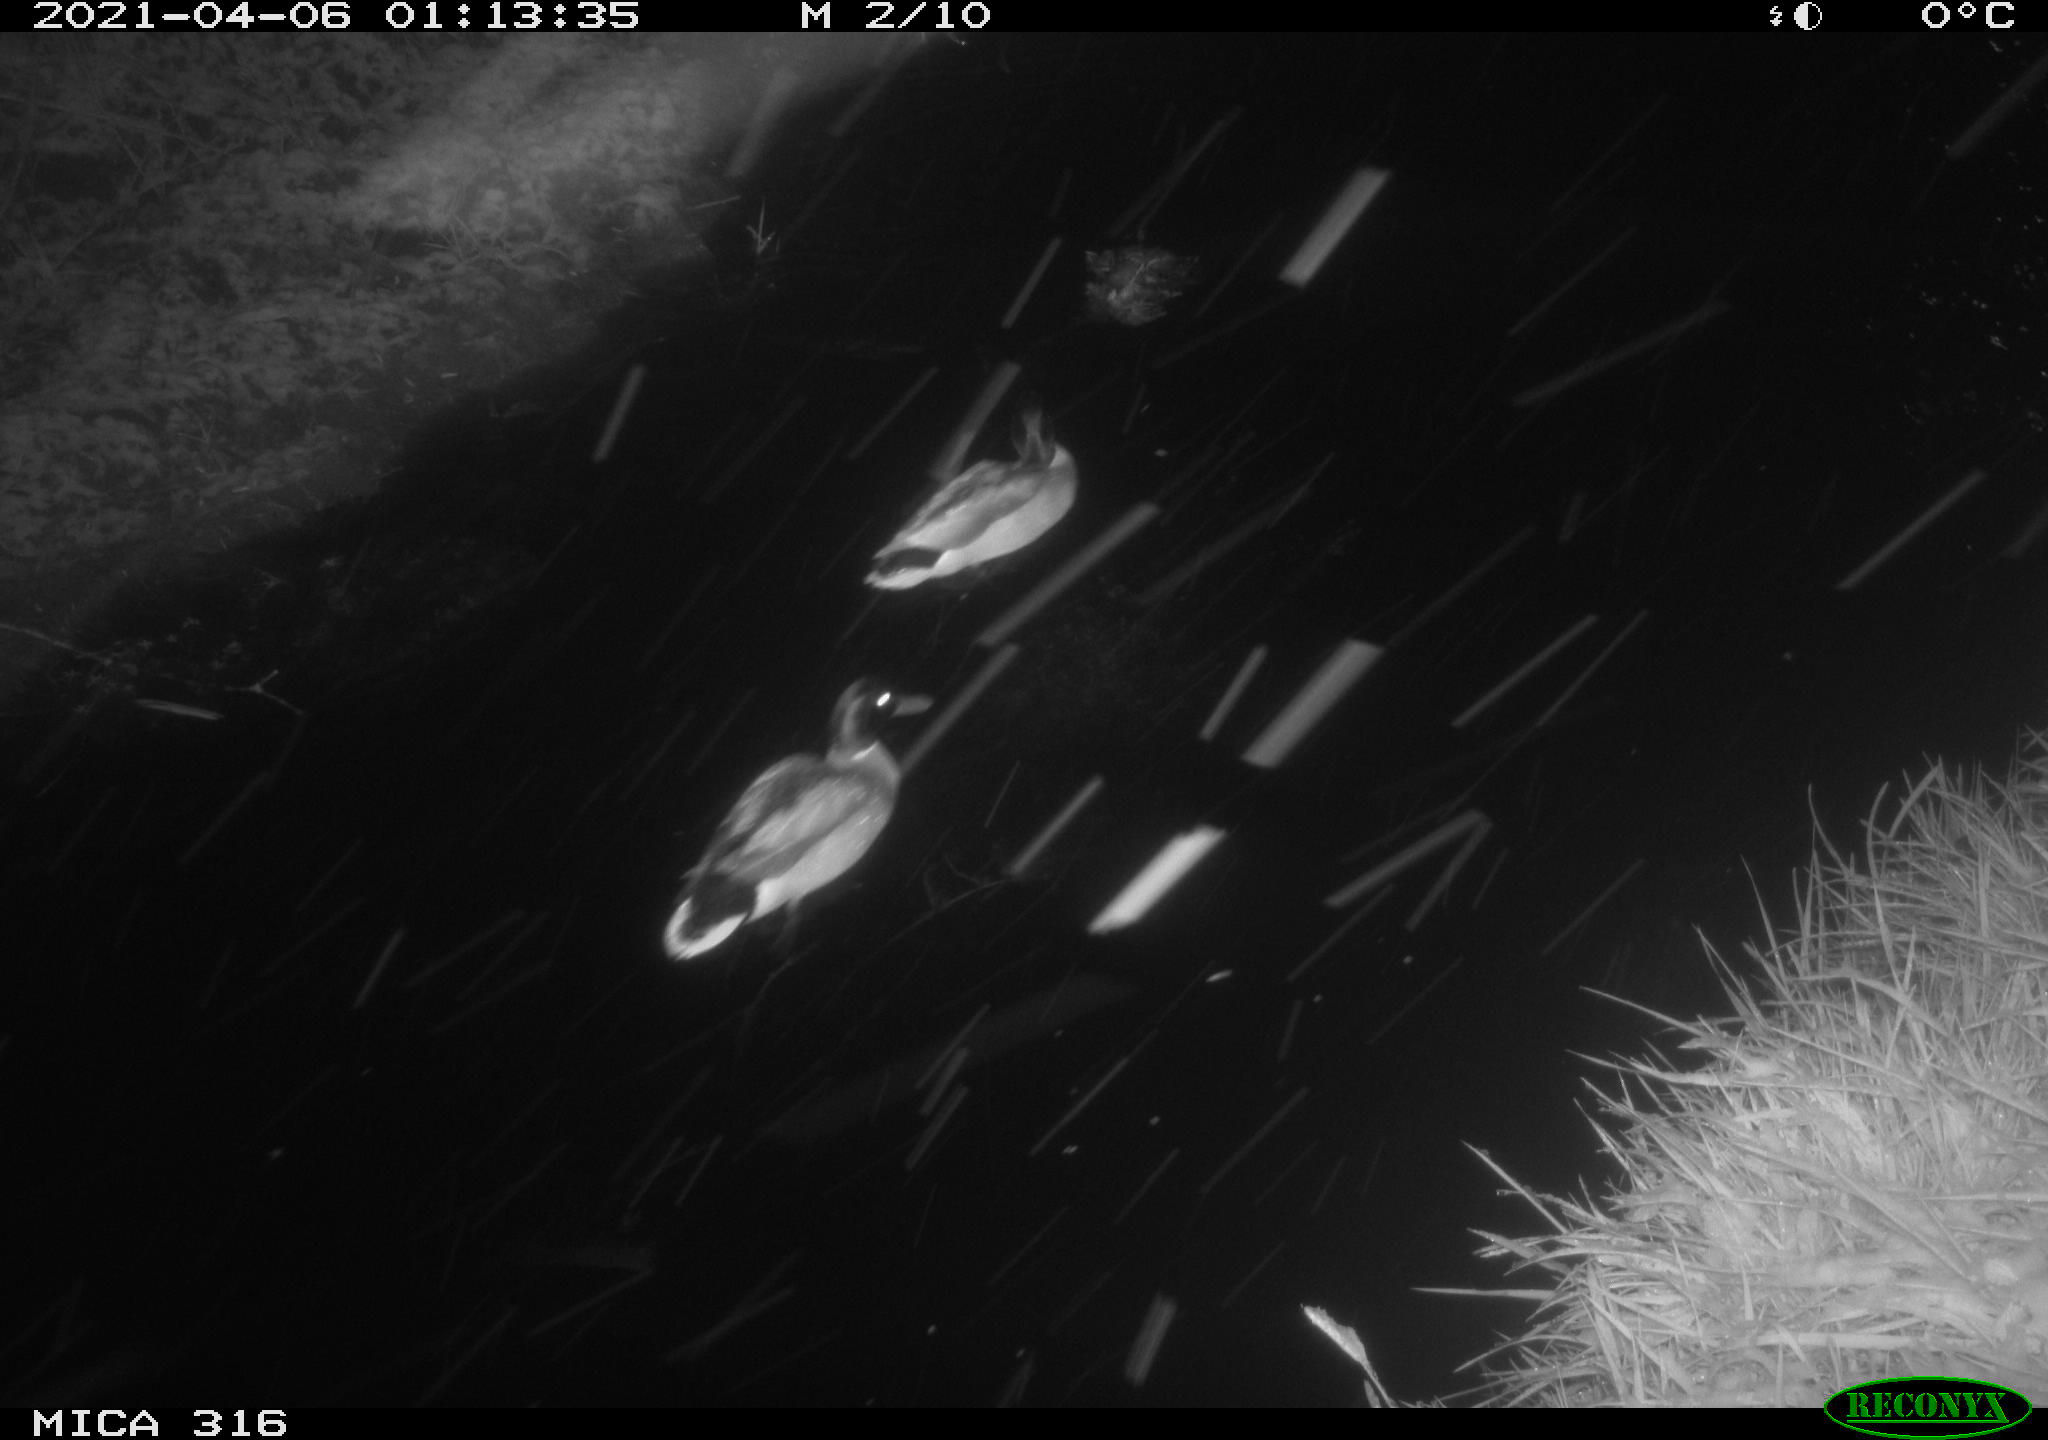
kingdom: Animalia
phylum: Chordata
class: Aves
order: Anseriformes
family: Anatidae
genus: Anas
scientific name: Anas platyrhynchos
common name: Mallard
